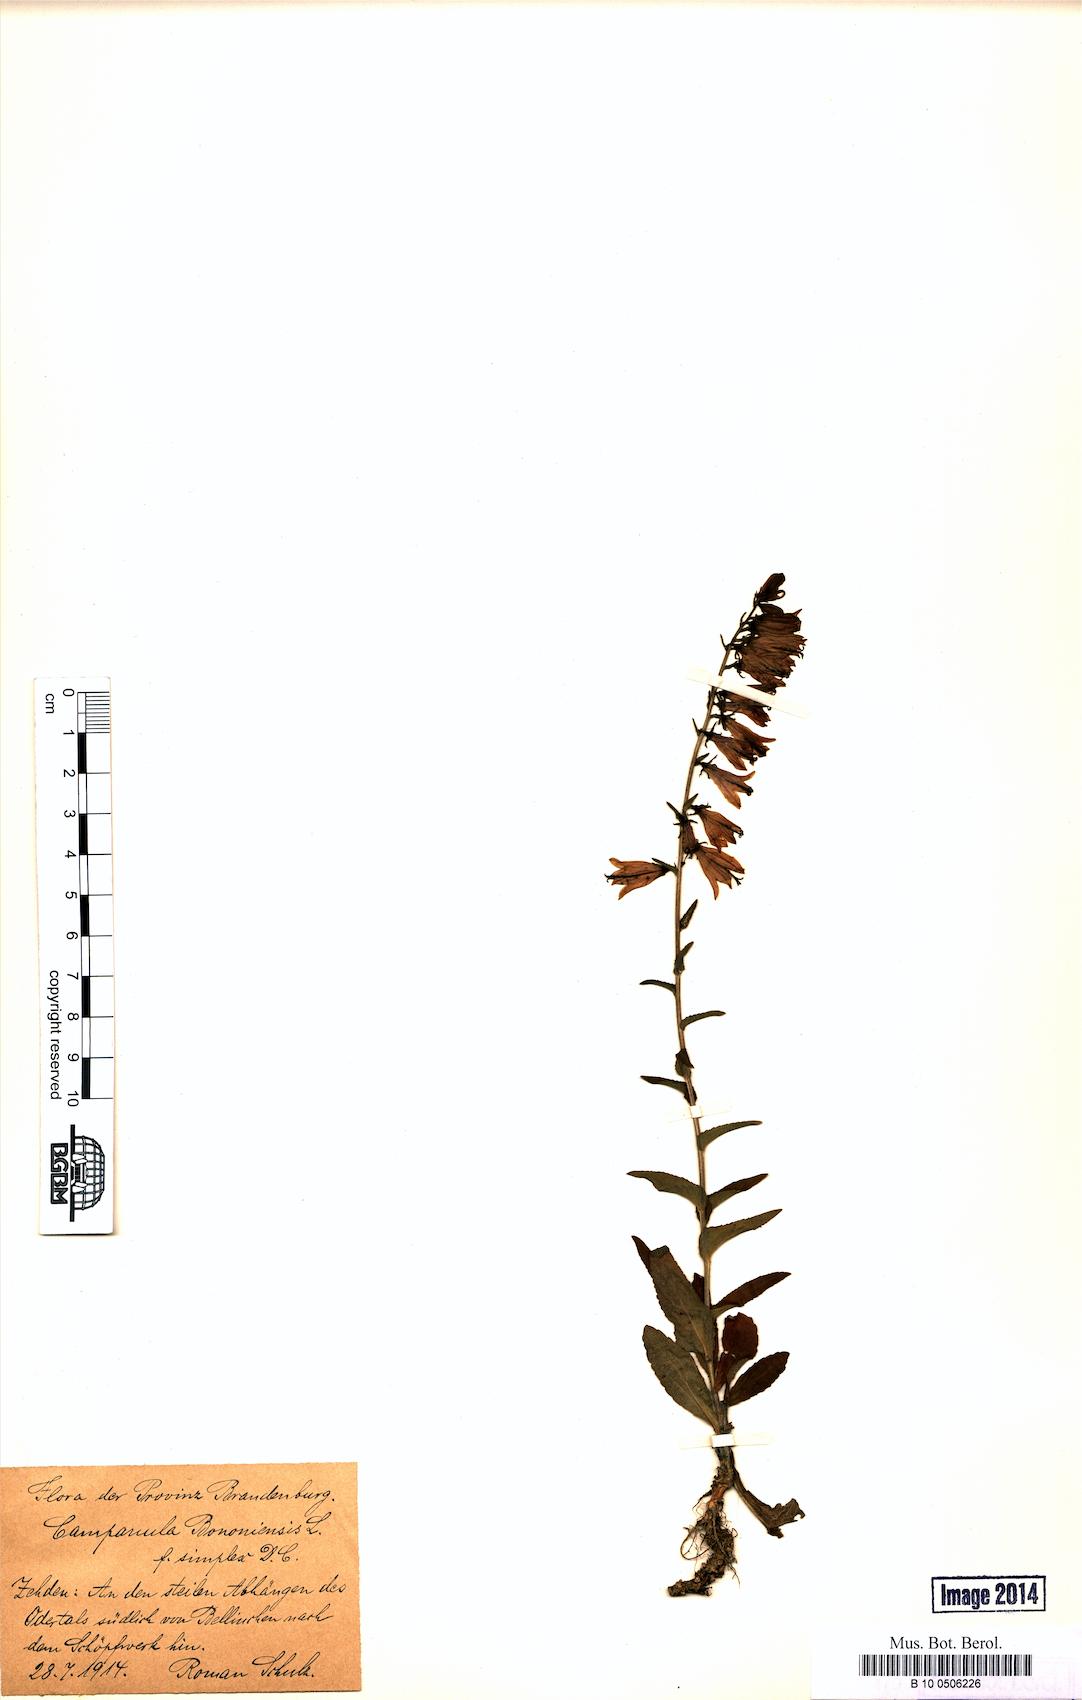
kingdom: Plantae
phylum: Tracheophyta
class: Magnoliopsida
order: Asterales
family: Campanulaceae
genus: Campanula
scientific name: Campanula bononiensis
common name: Pale bellflower
